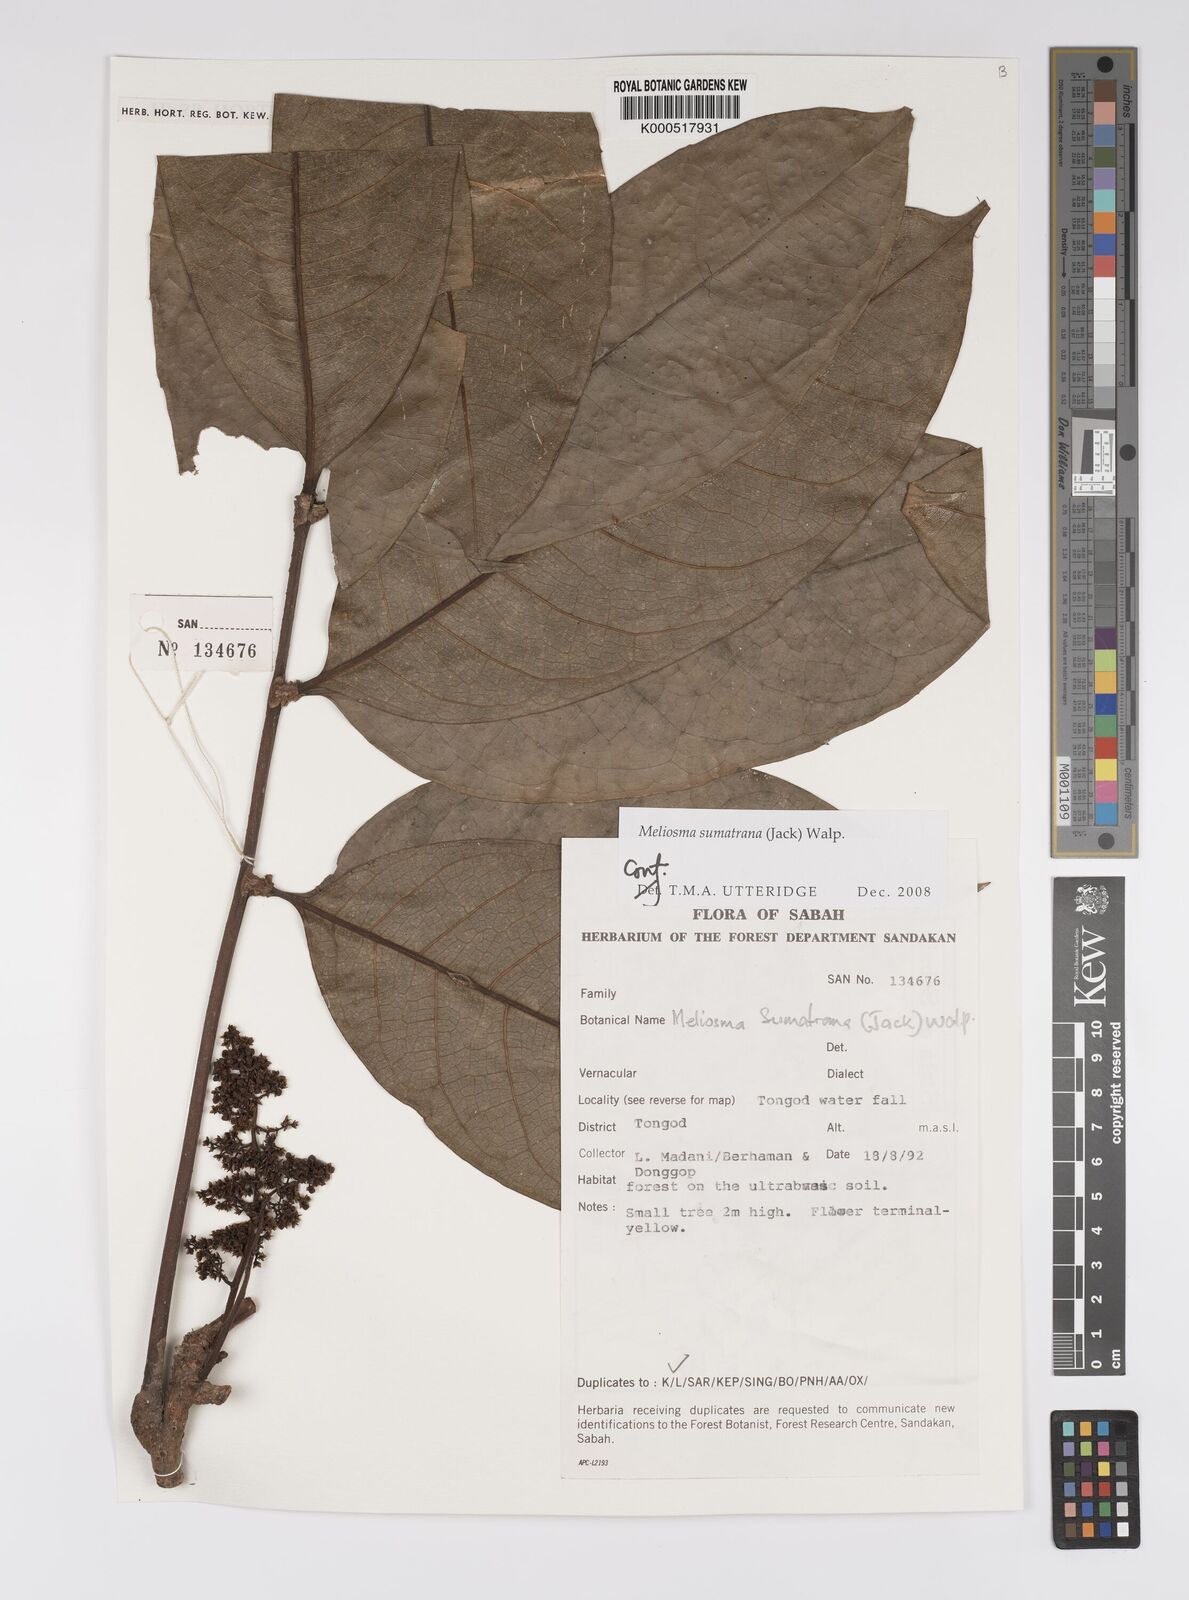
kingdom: Plantae
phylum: Tracheophyta
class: Magnoliopsida
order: Proteales
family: Sabiaceae
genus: Meliosma
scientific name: Meliosma sumatrana
